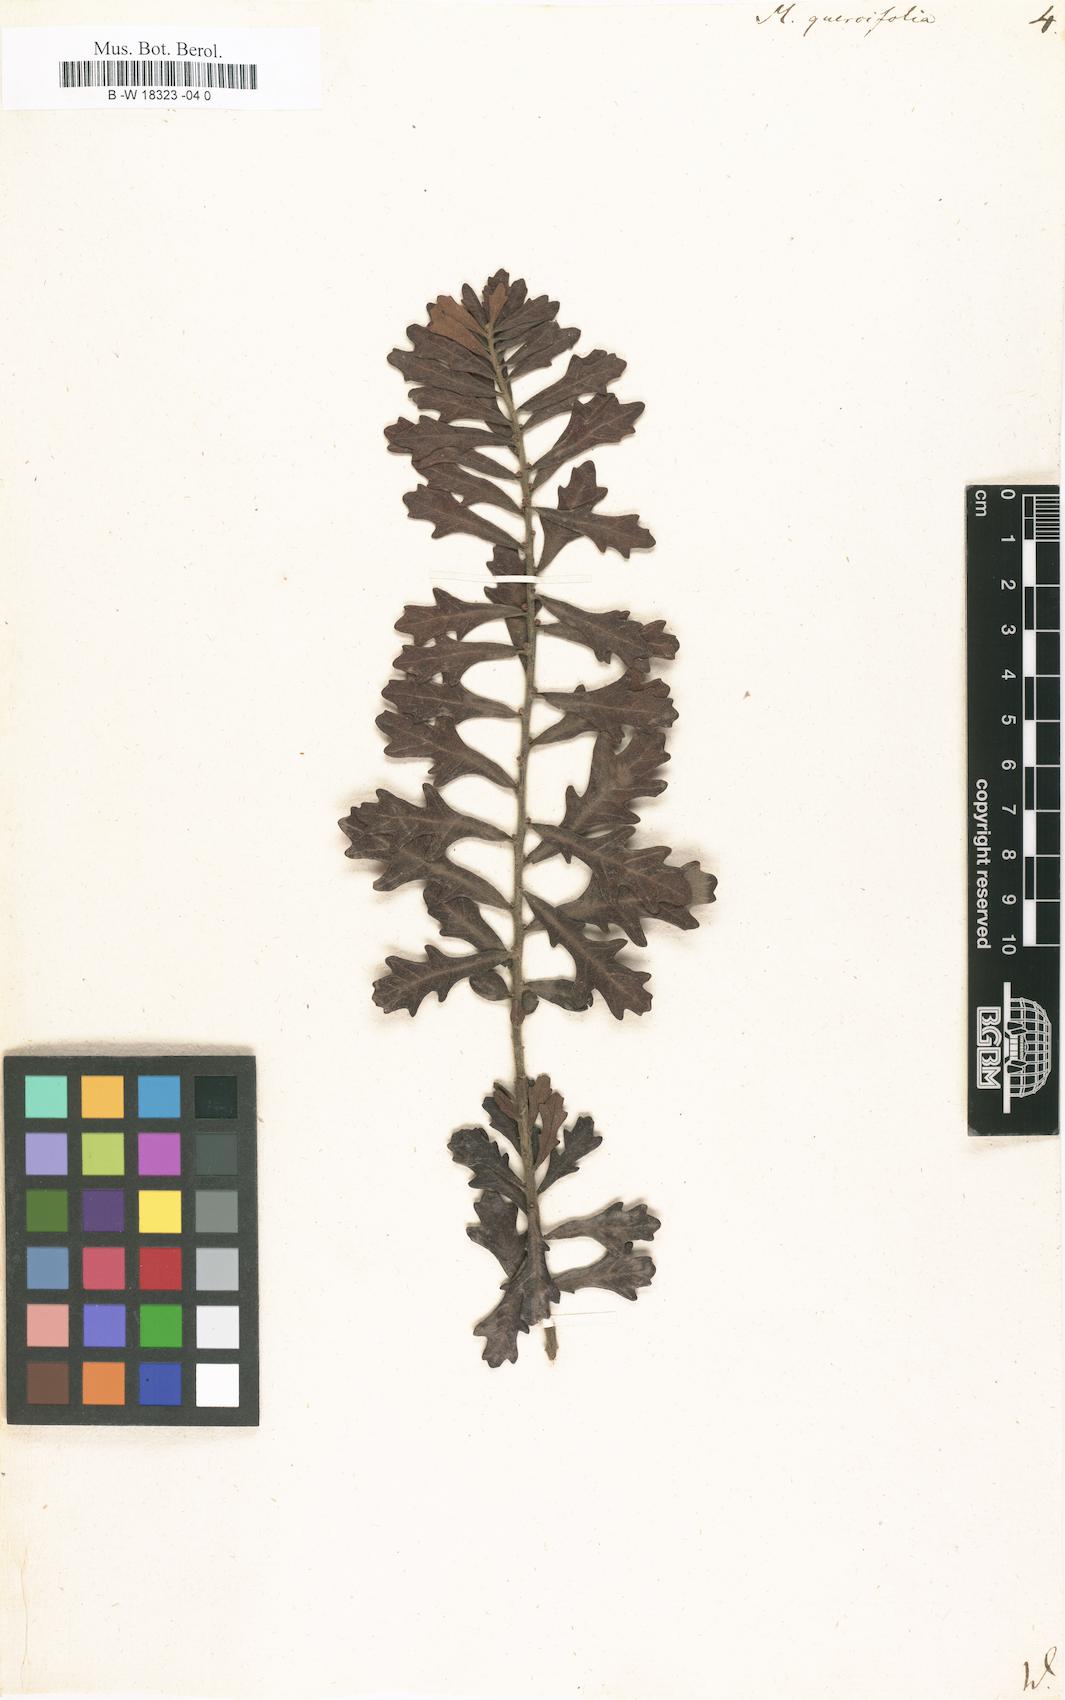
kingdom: Plantae
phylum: Tracheophyta
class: Magnoliopsida
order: Fagales
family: Myricaceae
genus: Morella
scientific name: Morella quercifolia
